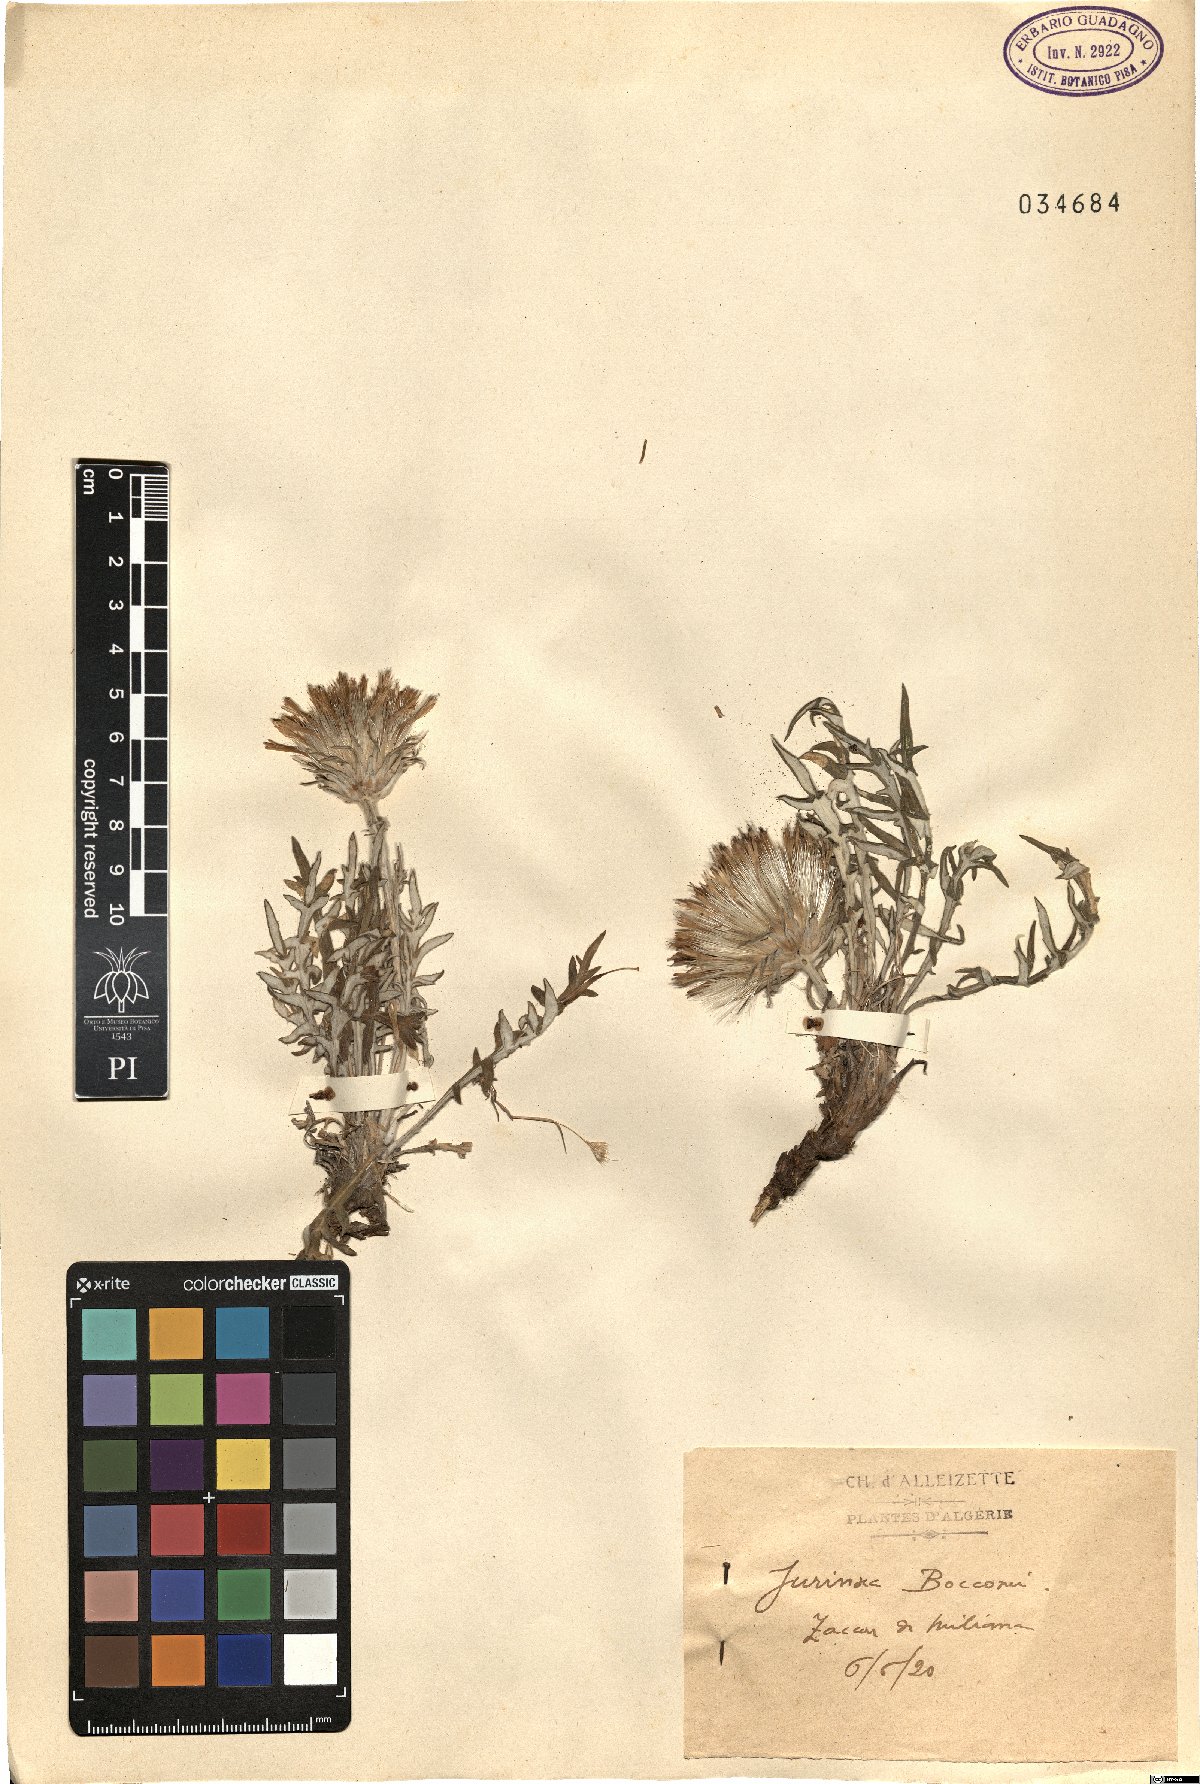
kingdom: Plantae
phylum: Tracheophyta
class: Magnoliopsida
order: Asterales
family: Asteraceae
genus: Jurinea
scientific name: Jurinea bocconei
